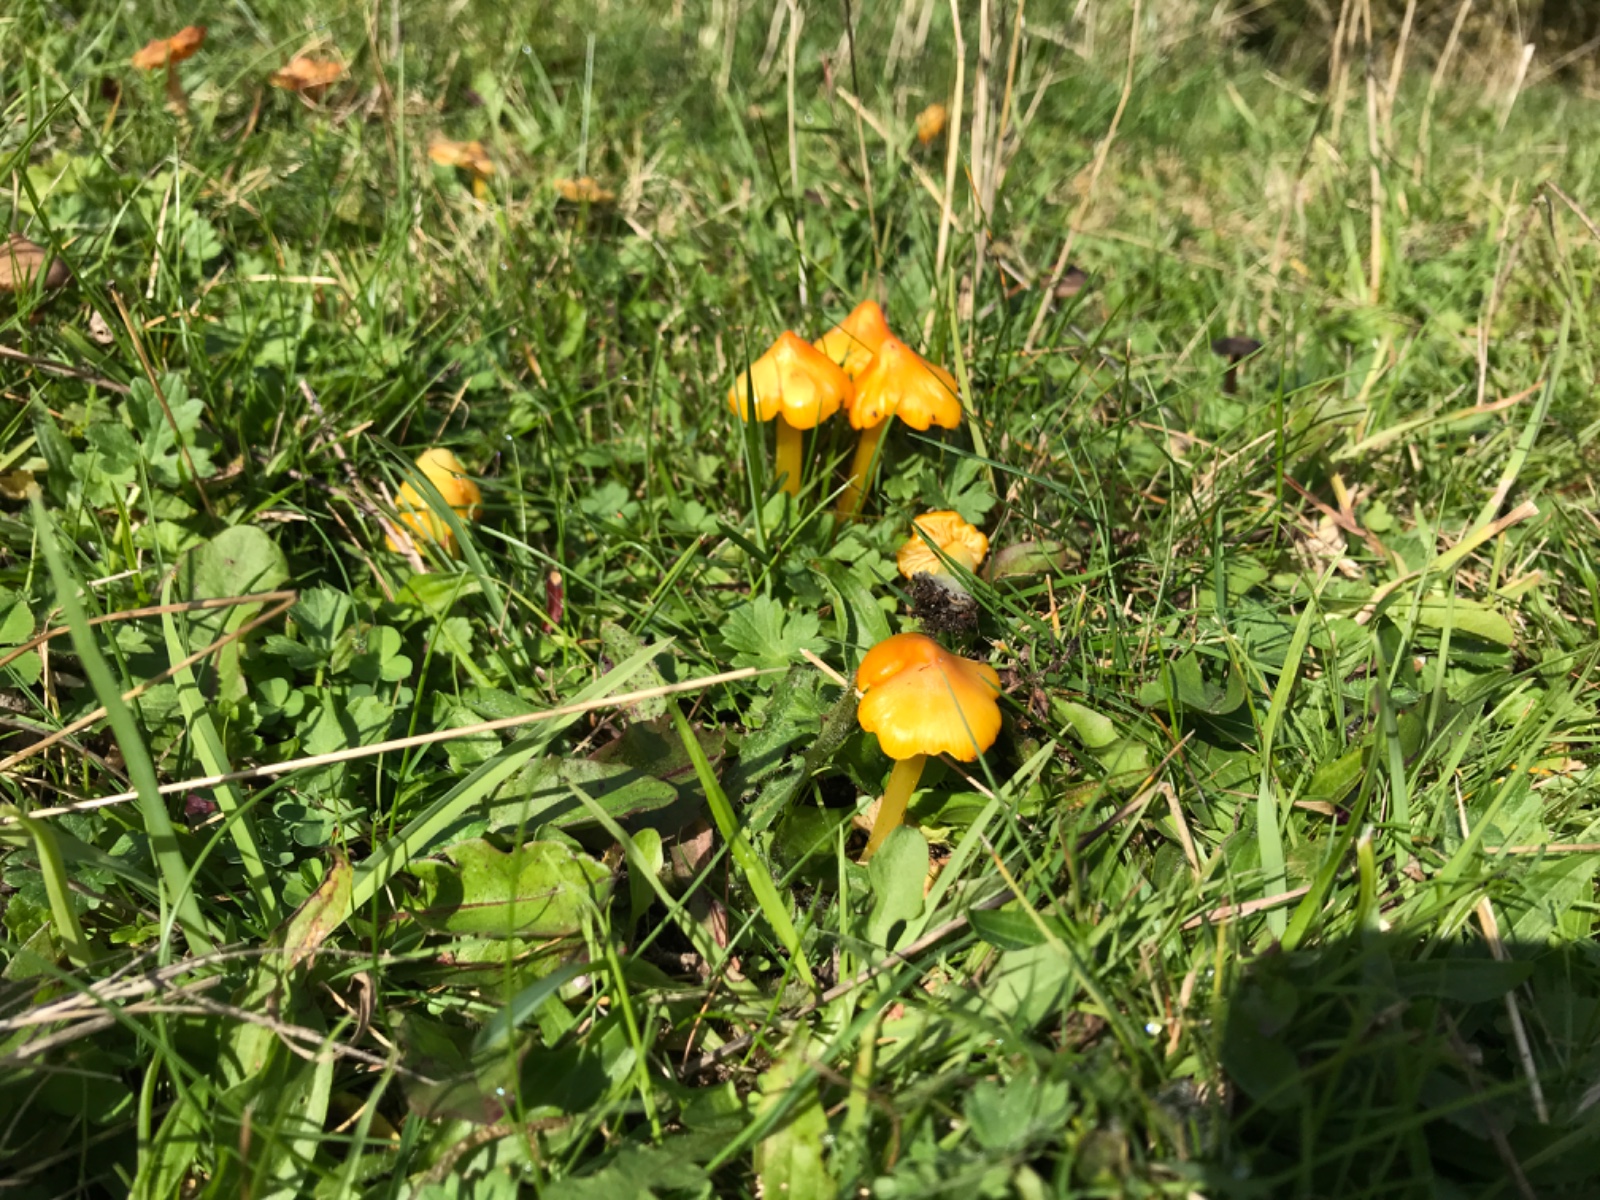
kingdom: Fungi
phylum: Basidiomycota
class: Agaricomycetes
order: Agaricales
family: Hygrophoraceae
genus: Hygrocybe
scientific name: Hygrocybe acutoconica
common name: spidspuklet vokshat
